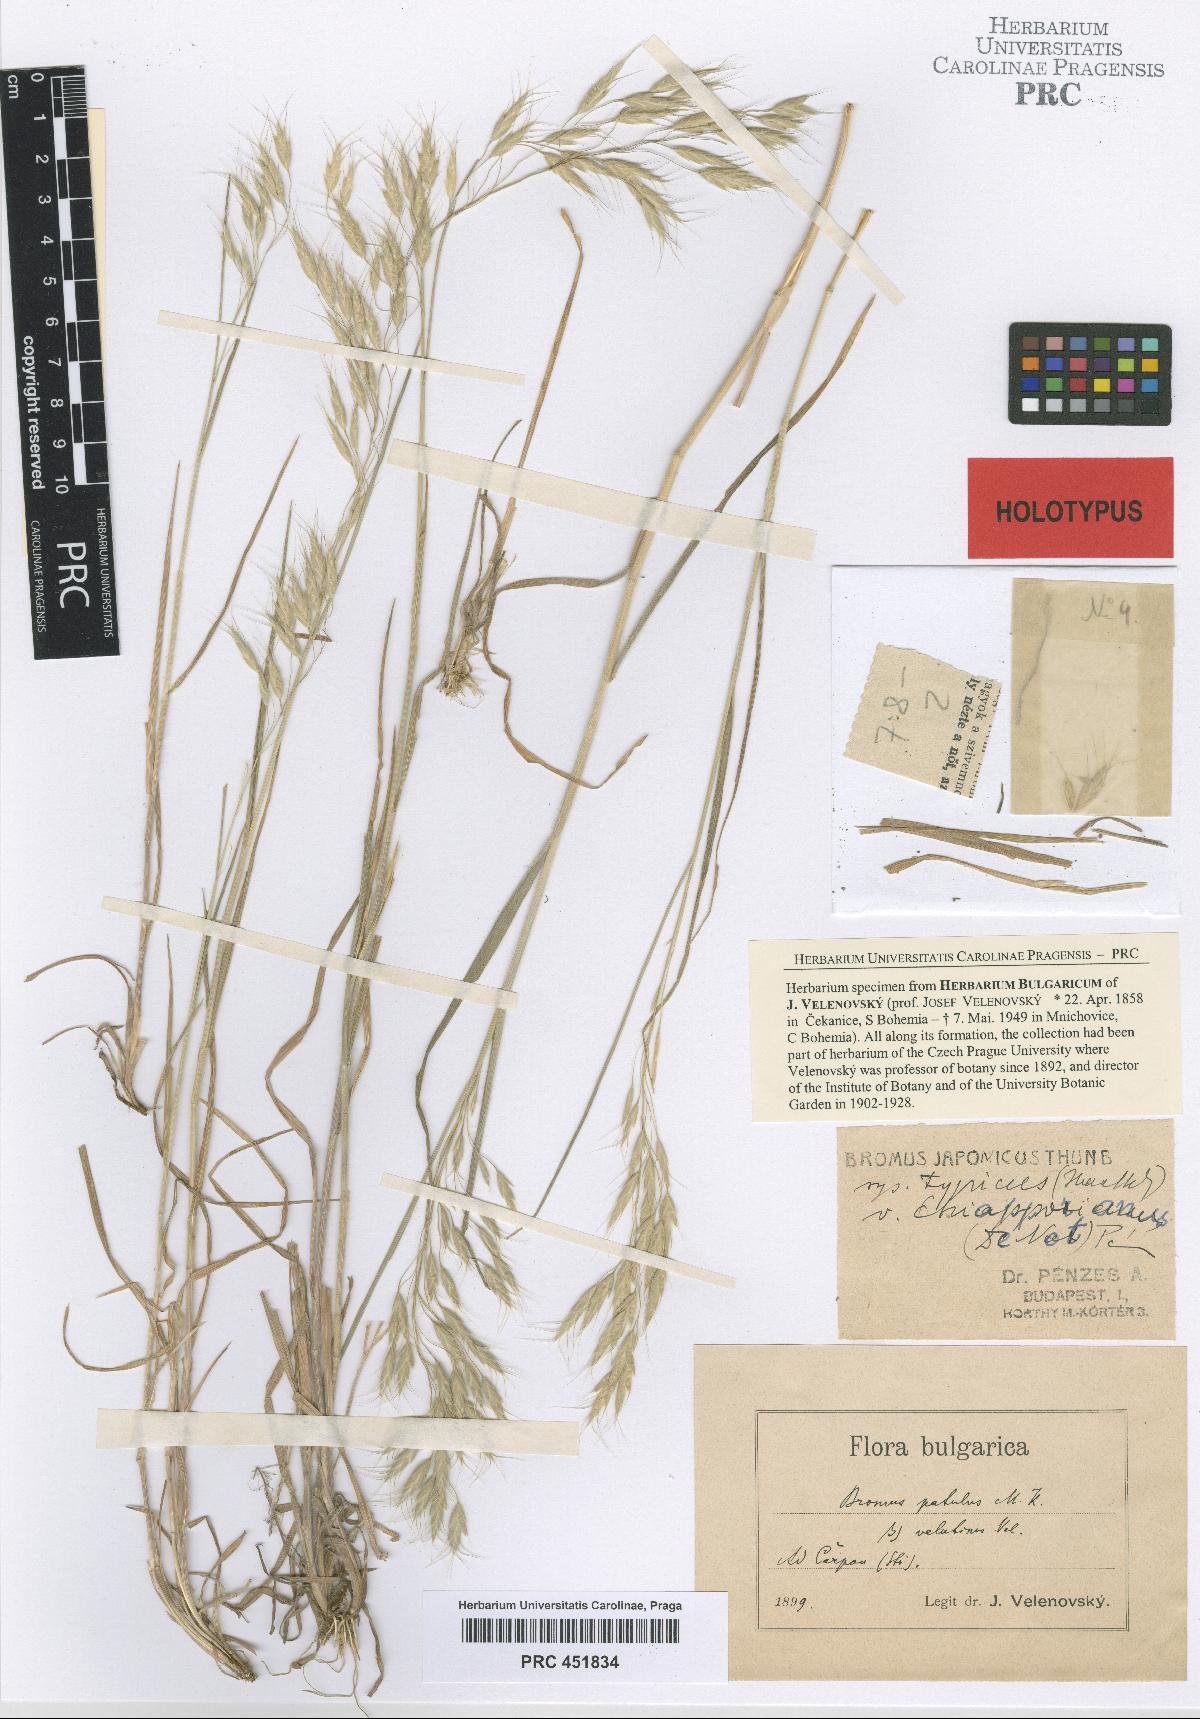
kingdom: Plantae
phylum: Tracheophyta
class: Liliopsida
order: Poales
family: Poaceae
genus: Bromus
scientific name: Bromus japonicus
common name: Japanese brome
